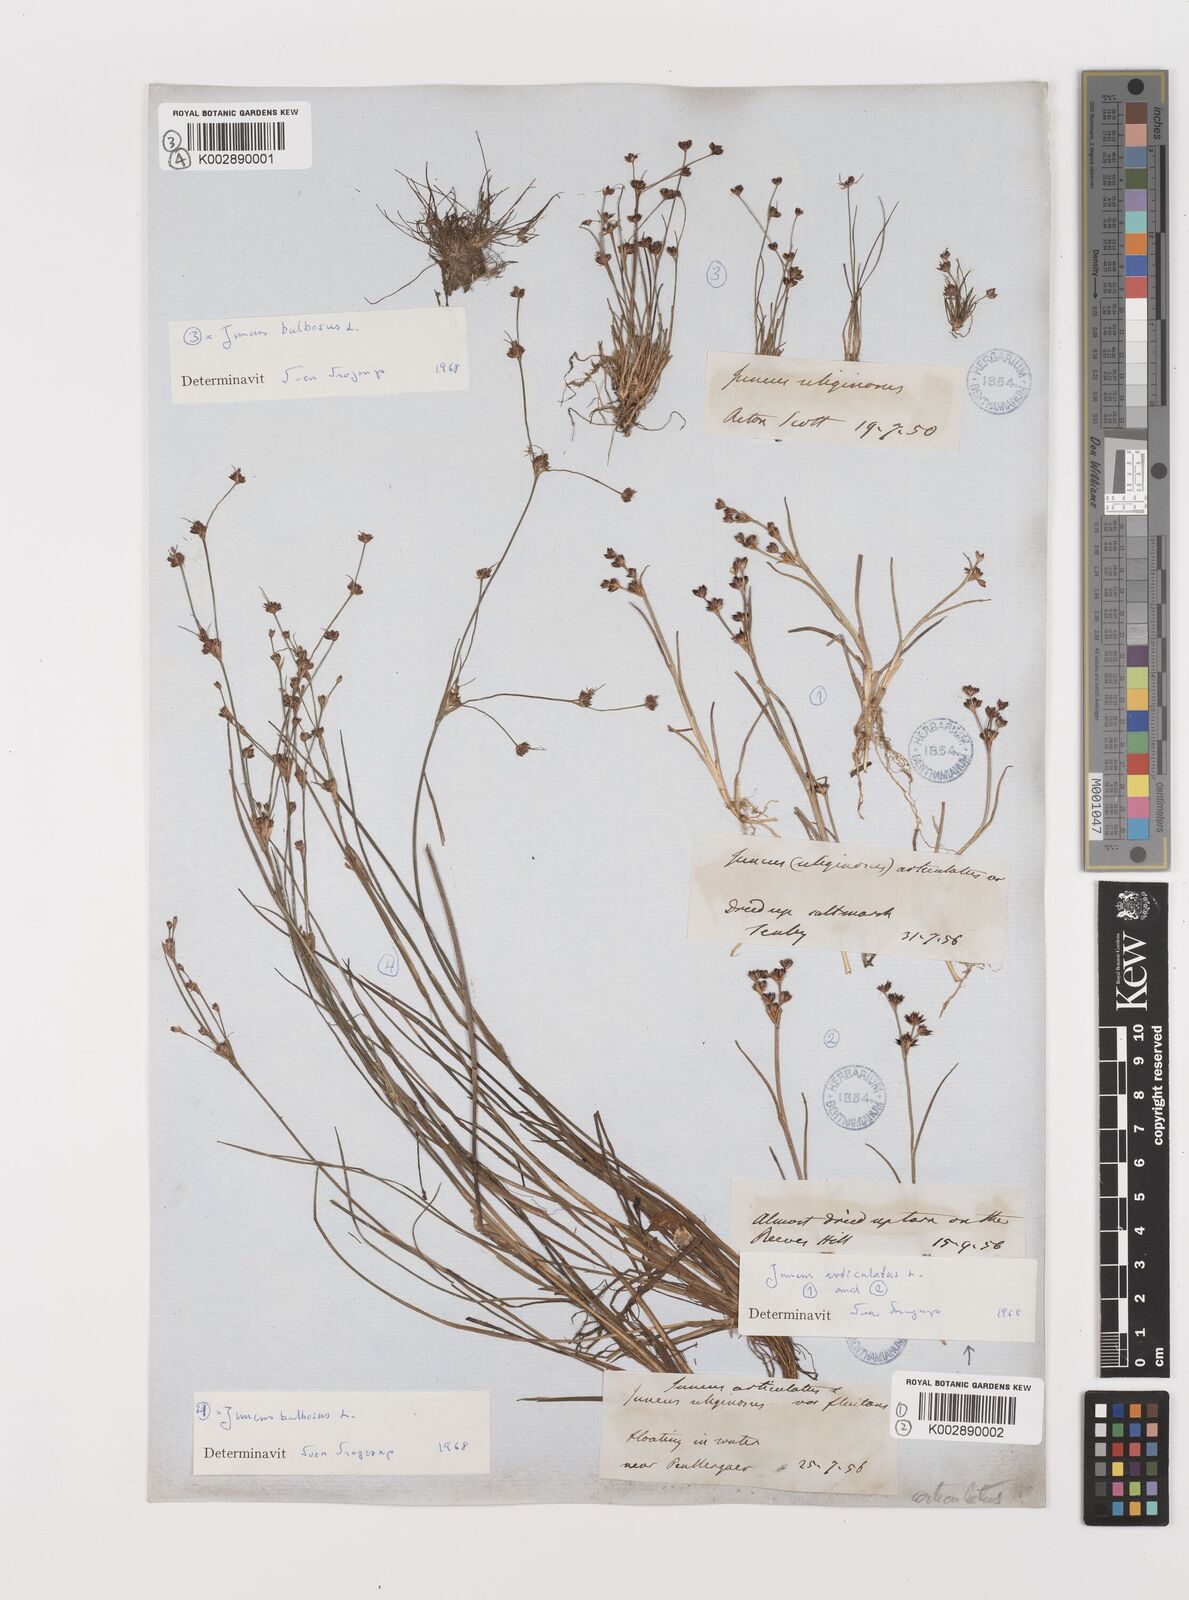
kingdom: Plantae
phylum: Tracheophyta
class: Liliopsida
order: Poales
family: Juncaceae
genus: Juncus
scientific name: Juncus articulatus
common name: Jointed rush
